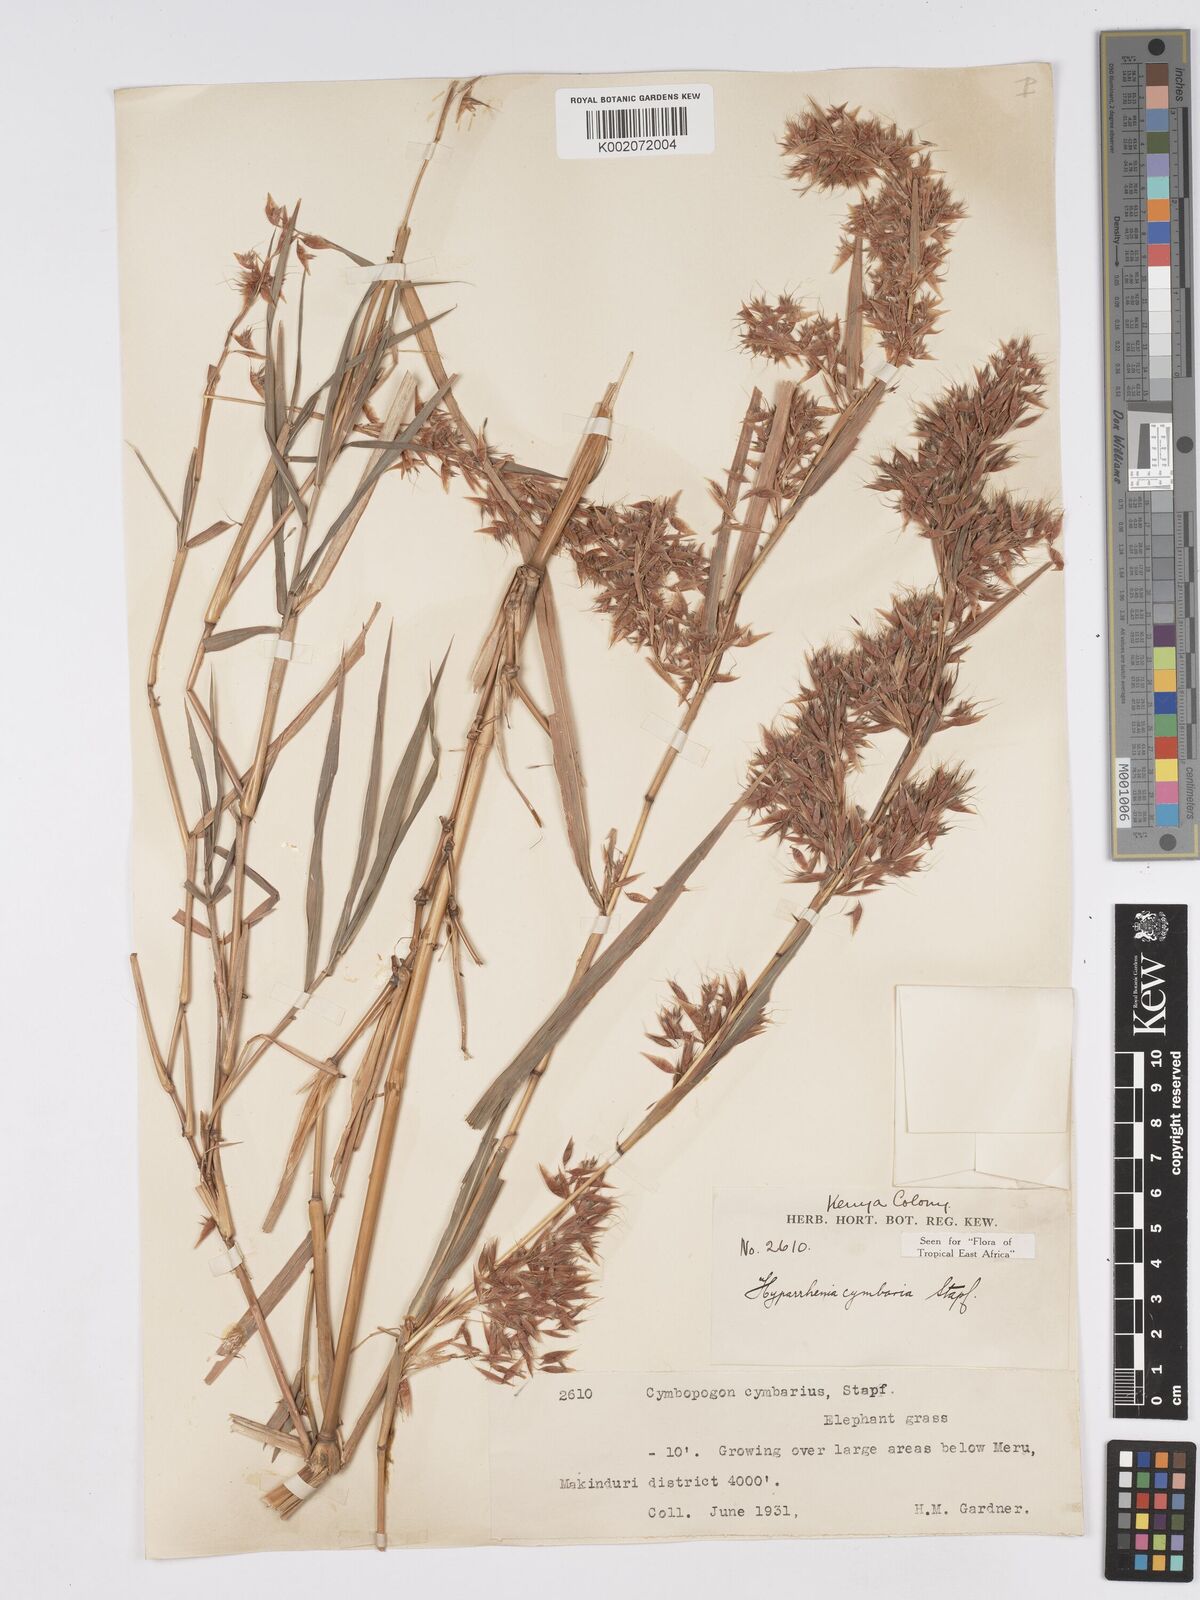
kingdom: Plantae
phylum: Tracheophyta
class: Liliopsida
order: Poales
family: Poaceae
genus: Hyparrhenia
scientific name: Hyparrhenia cymbaria
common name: Boat thatching grass
